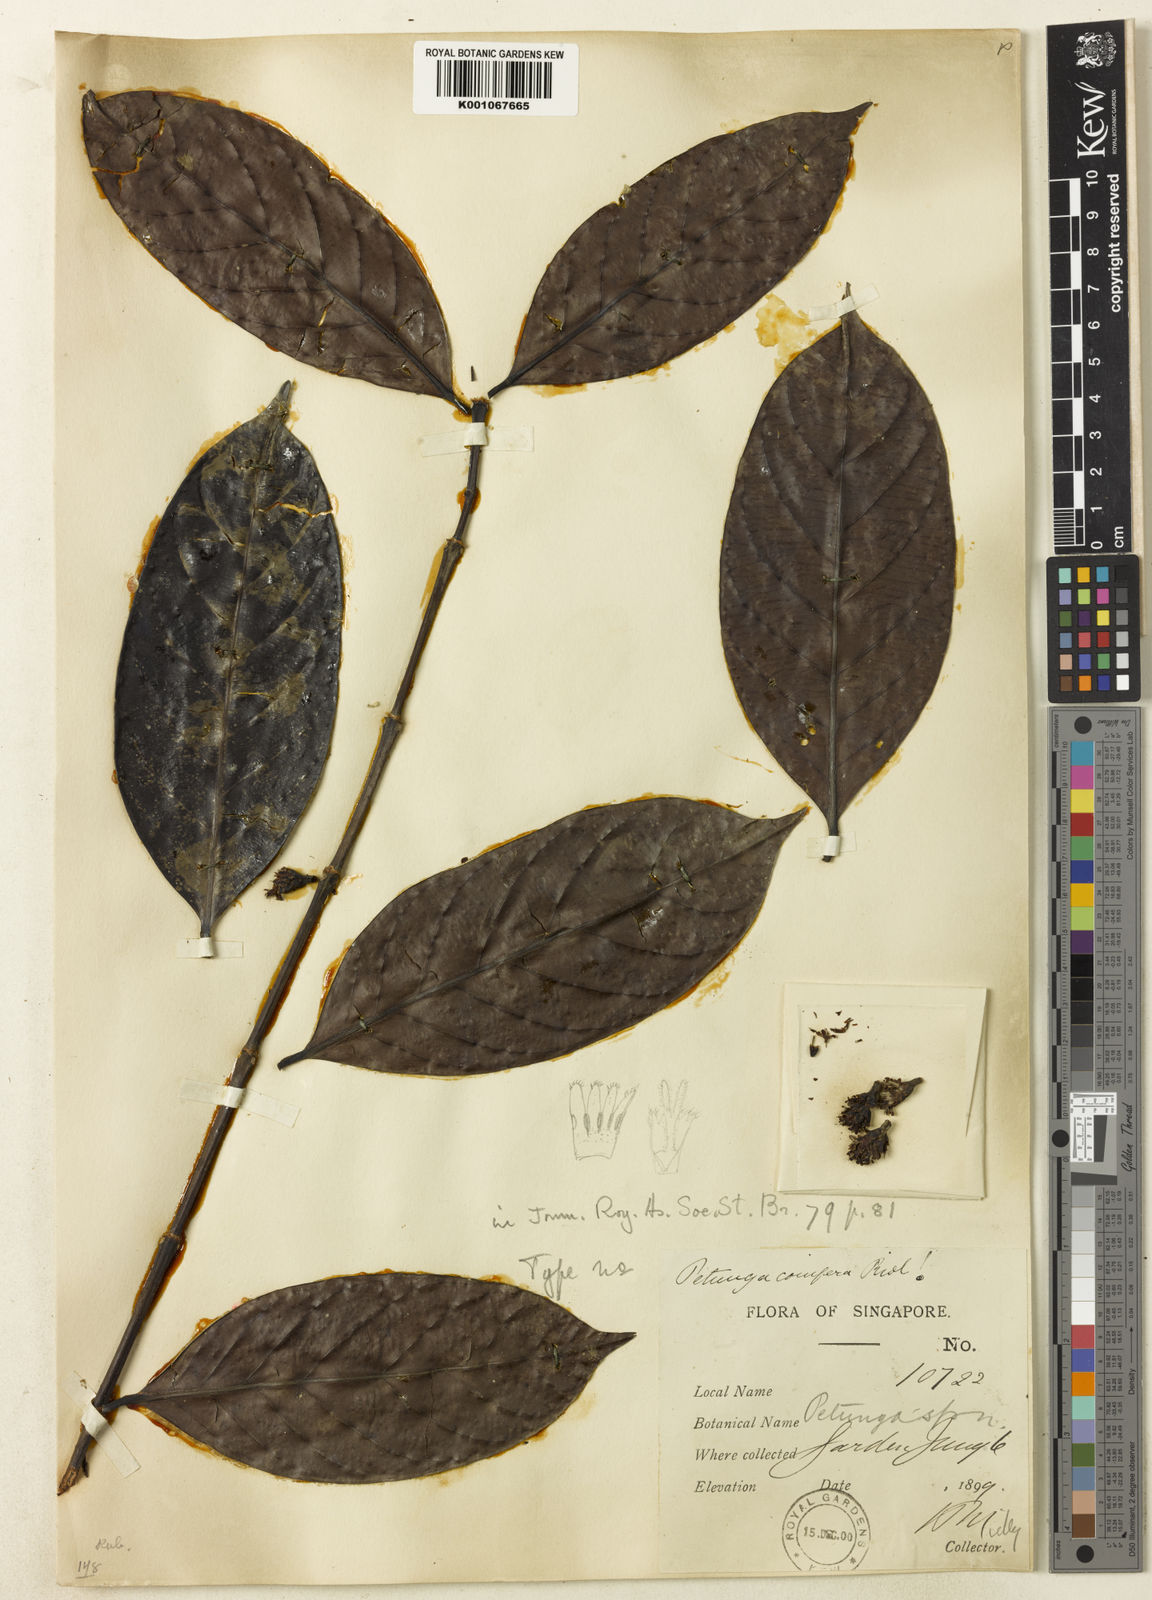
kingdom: Plantae
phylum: Tracheophyta
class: Magnoliopsida
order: Gentianales
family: Rubiaceae
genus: Hypobathrum
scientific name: Hypobathrum coniferum
